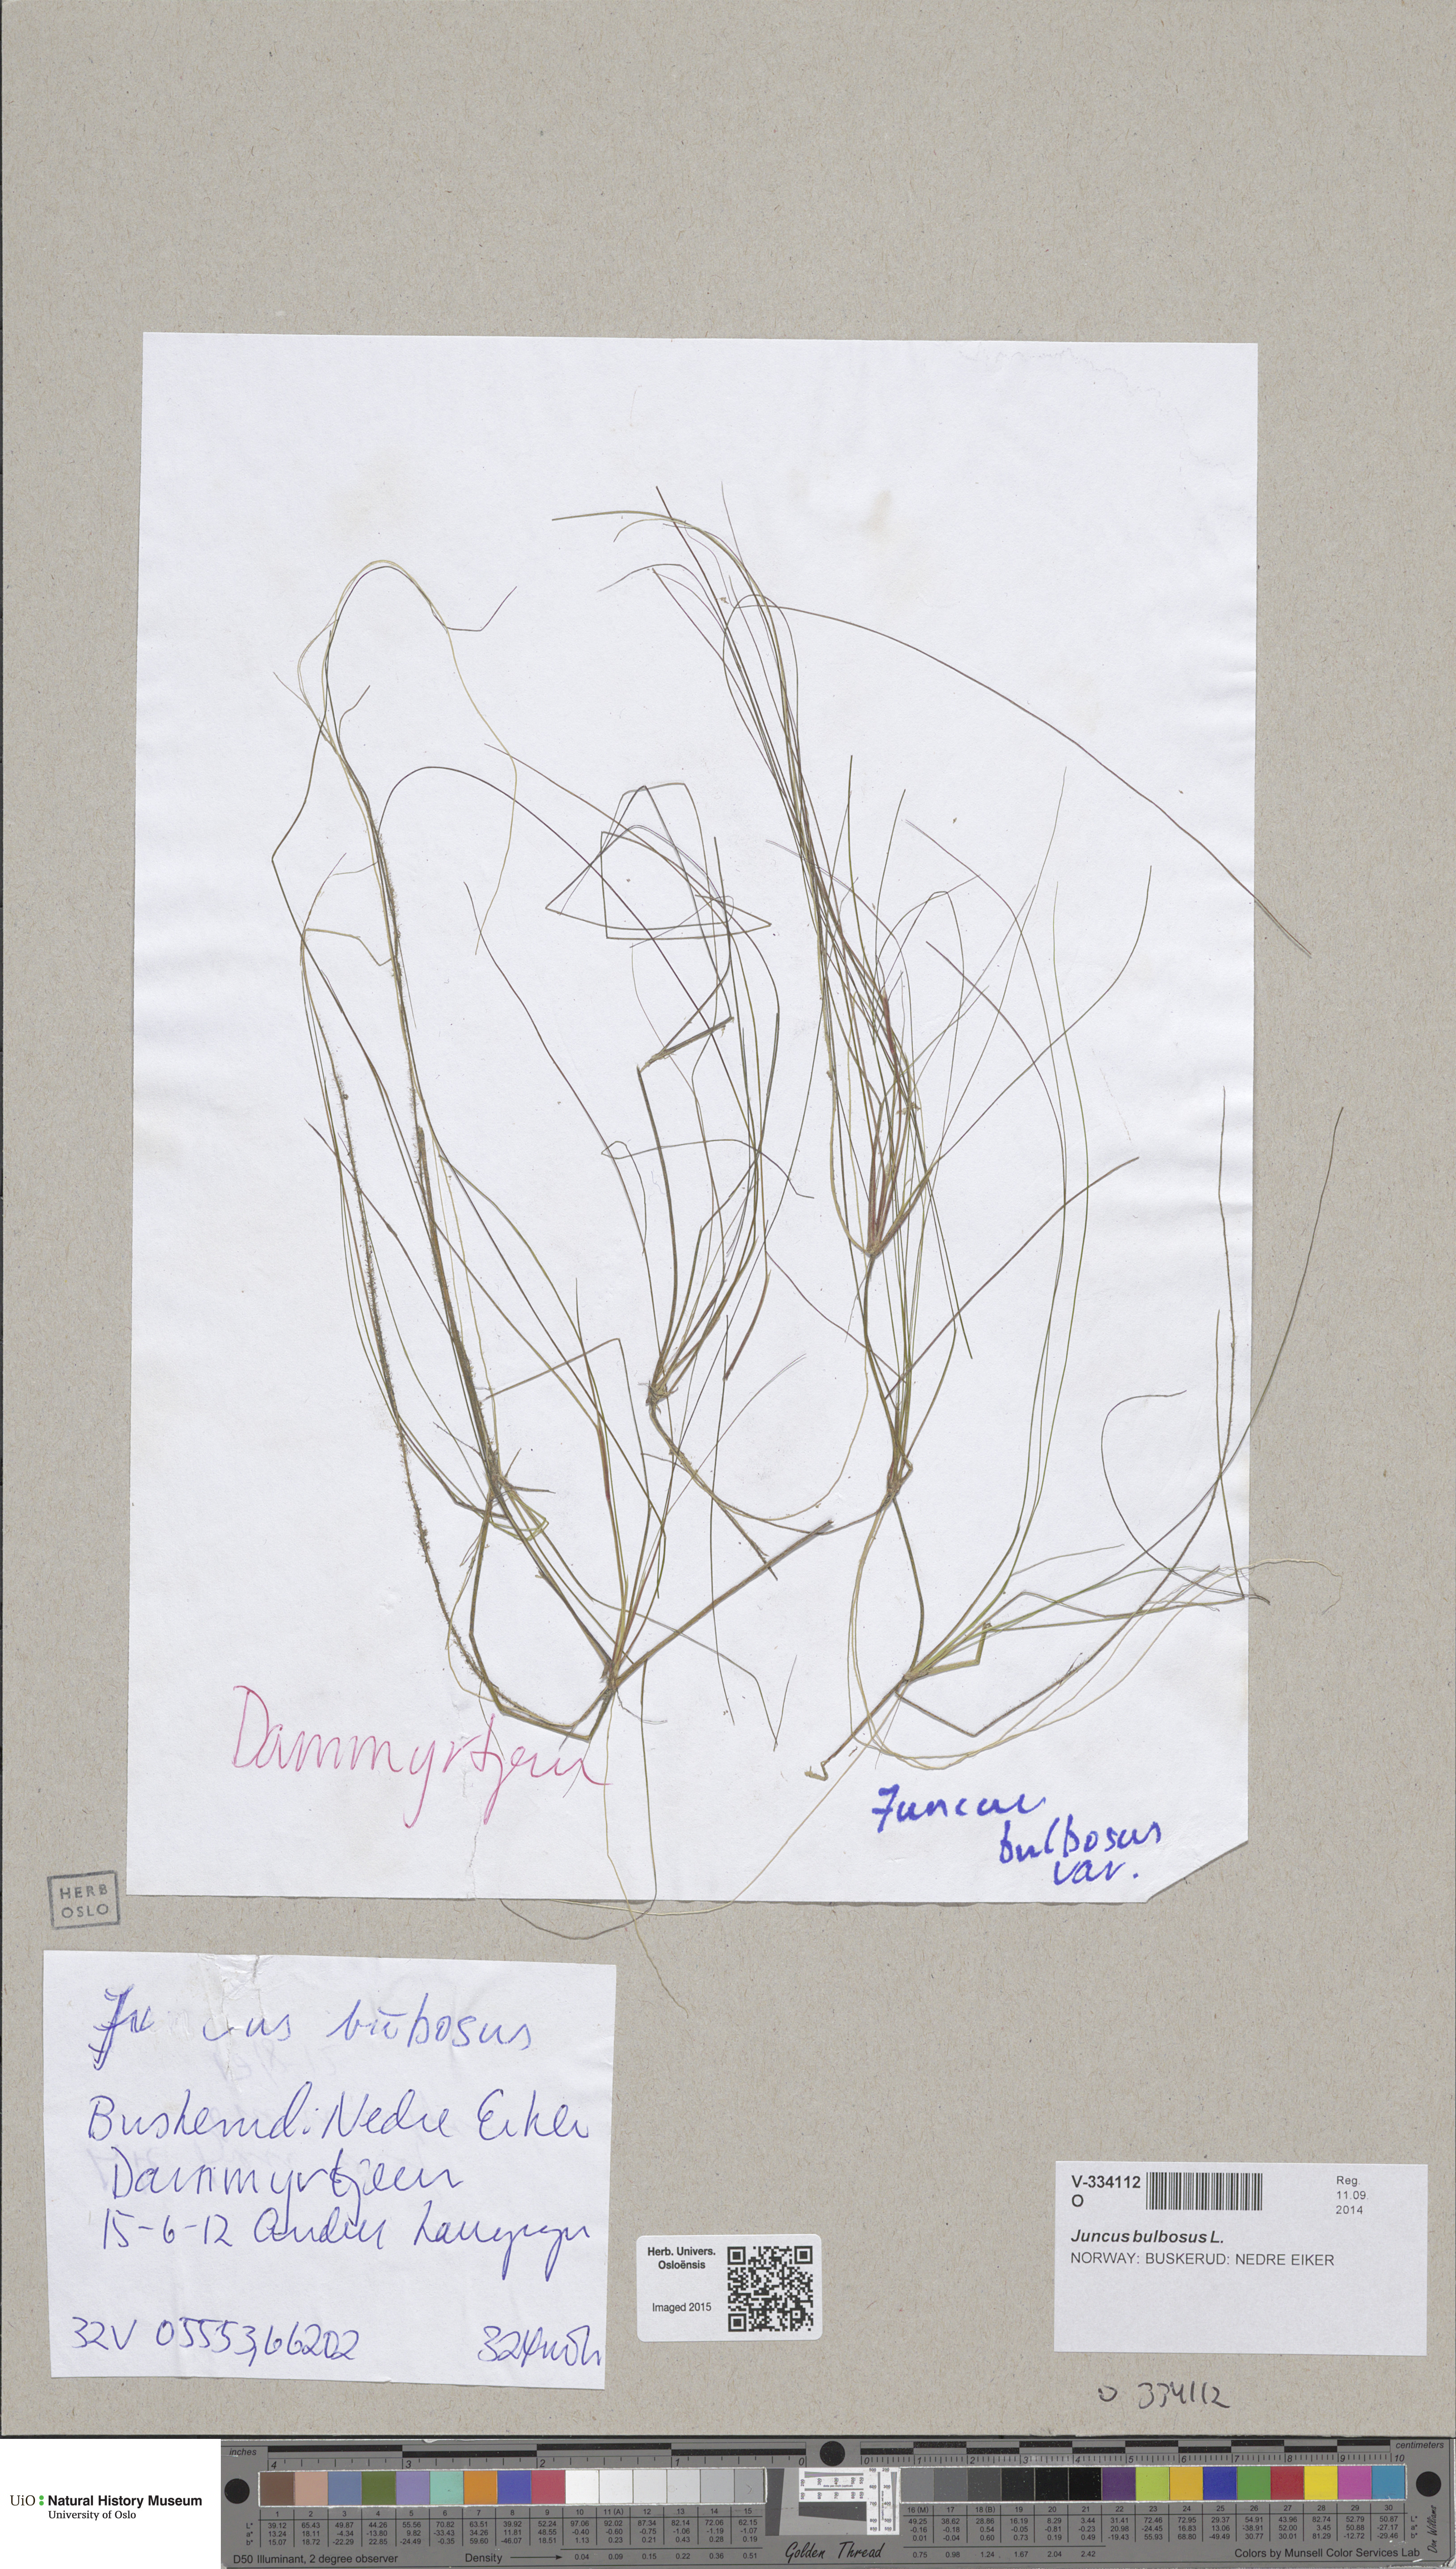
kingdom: Plantae
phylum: Tracheophyta
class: Liliopsida
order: Poales
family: Juncaceae
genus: Juncus
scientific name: Juncus bulbosus
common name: Bulbous rush
